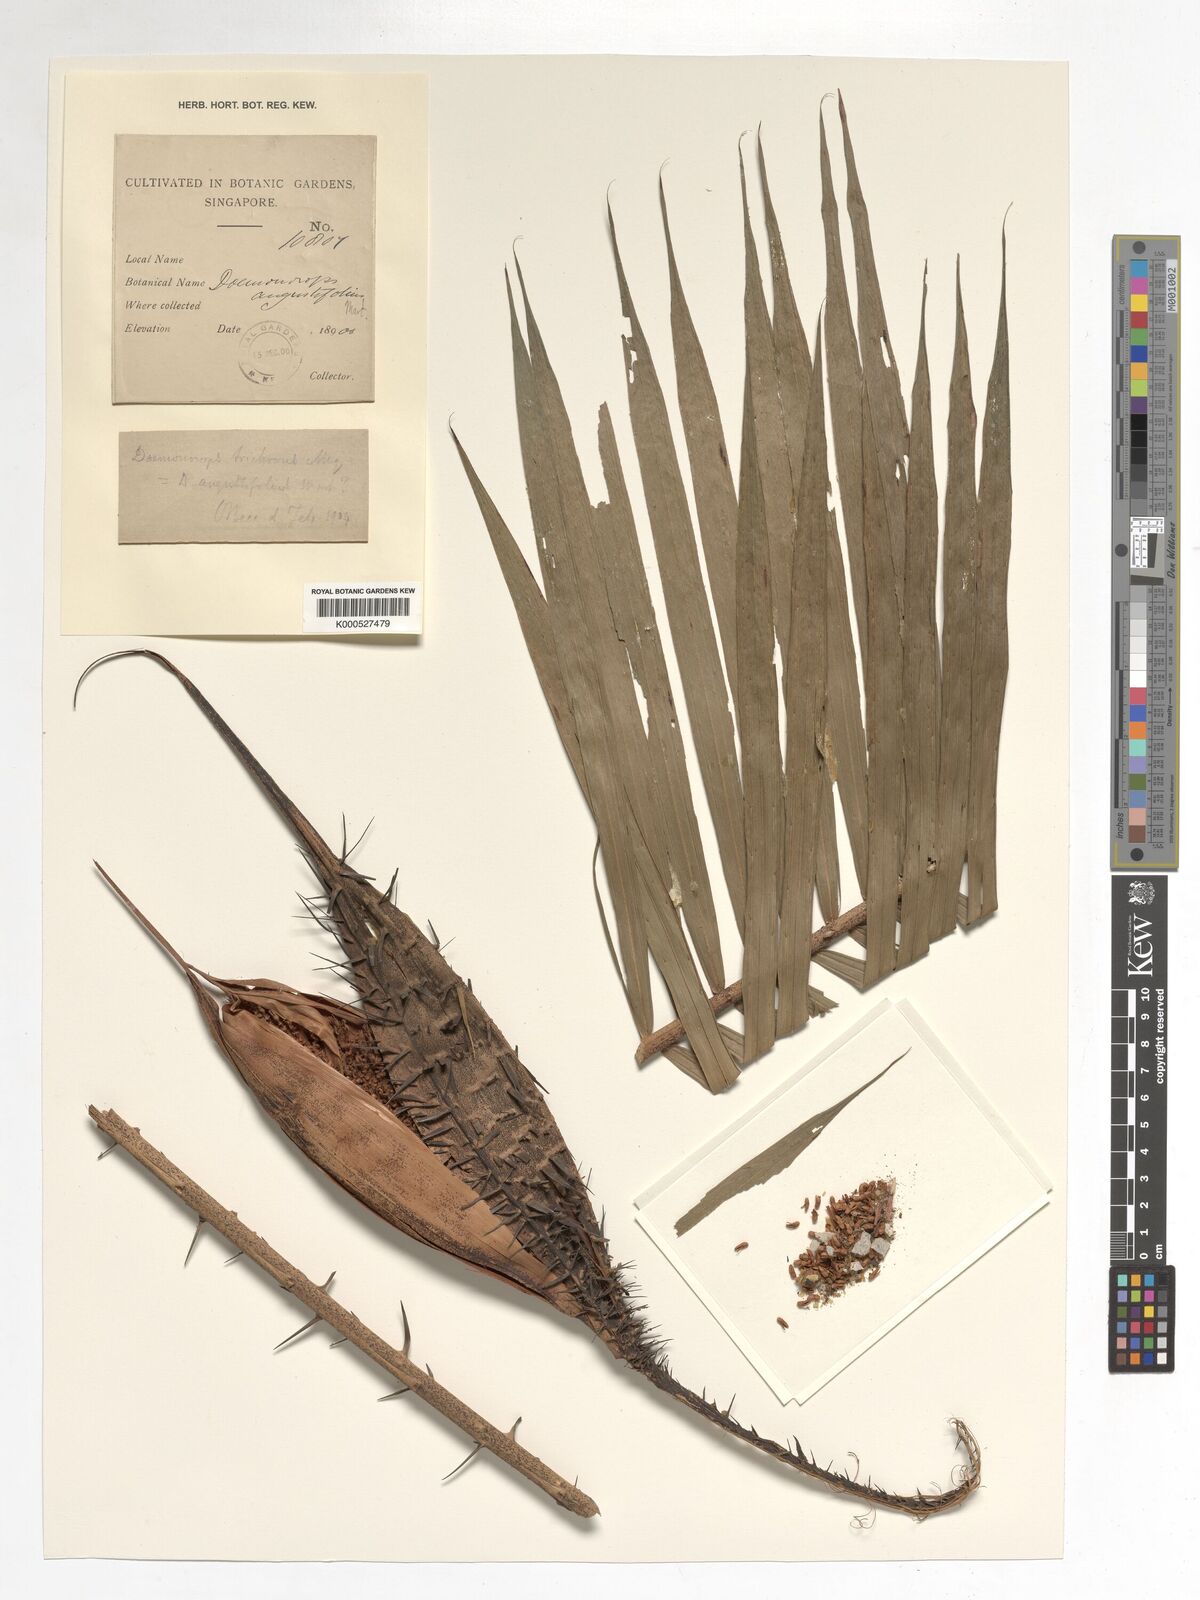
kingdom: Plantae
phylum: Tracheophyta
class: Liliopsida
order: Arecales
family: Arecaceae
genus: Calamus
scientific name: Calamus melanochaetes
